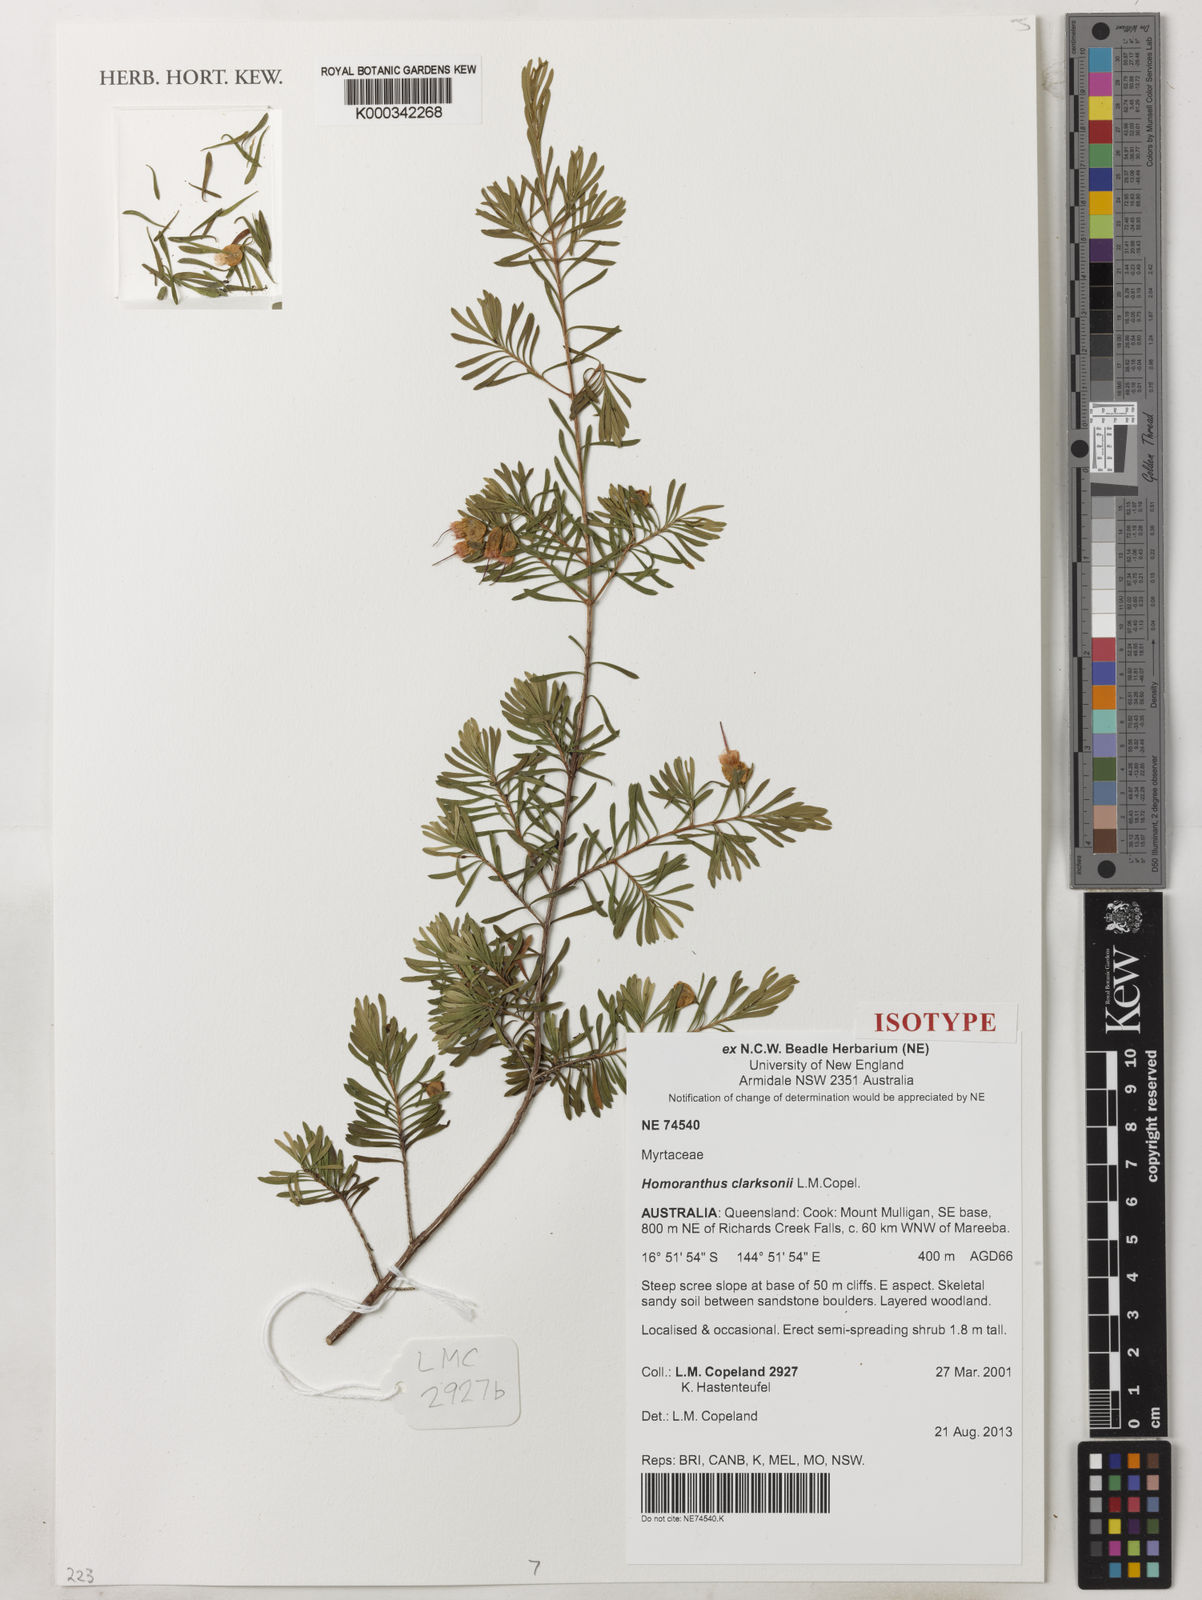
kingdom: Plantae
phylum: Tracheophyta
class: Magnoliopsida
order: Myrtales
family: Myrtaceae
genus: Homoranthus
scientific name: Homoranthus clarksonii
